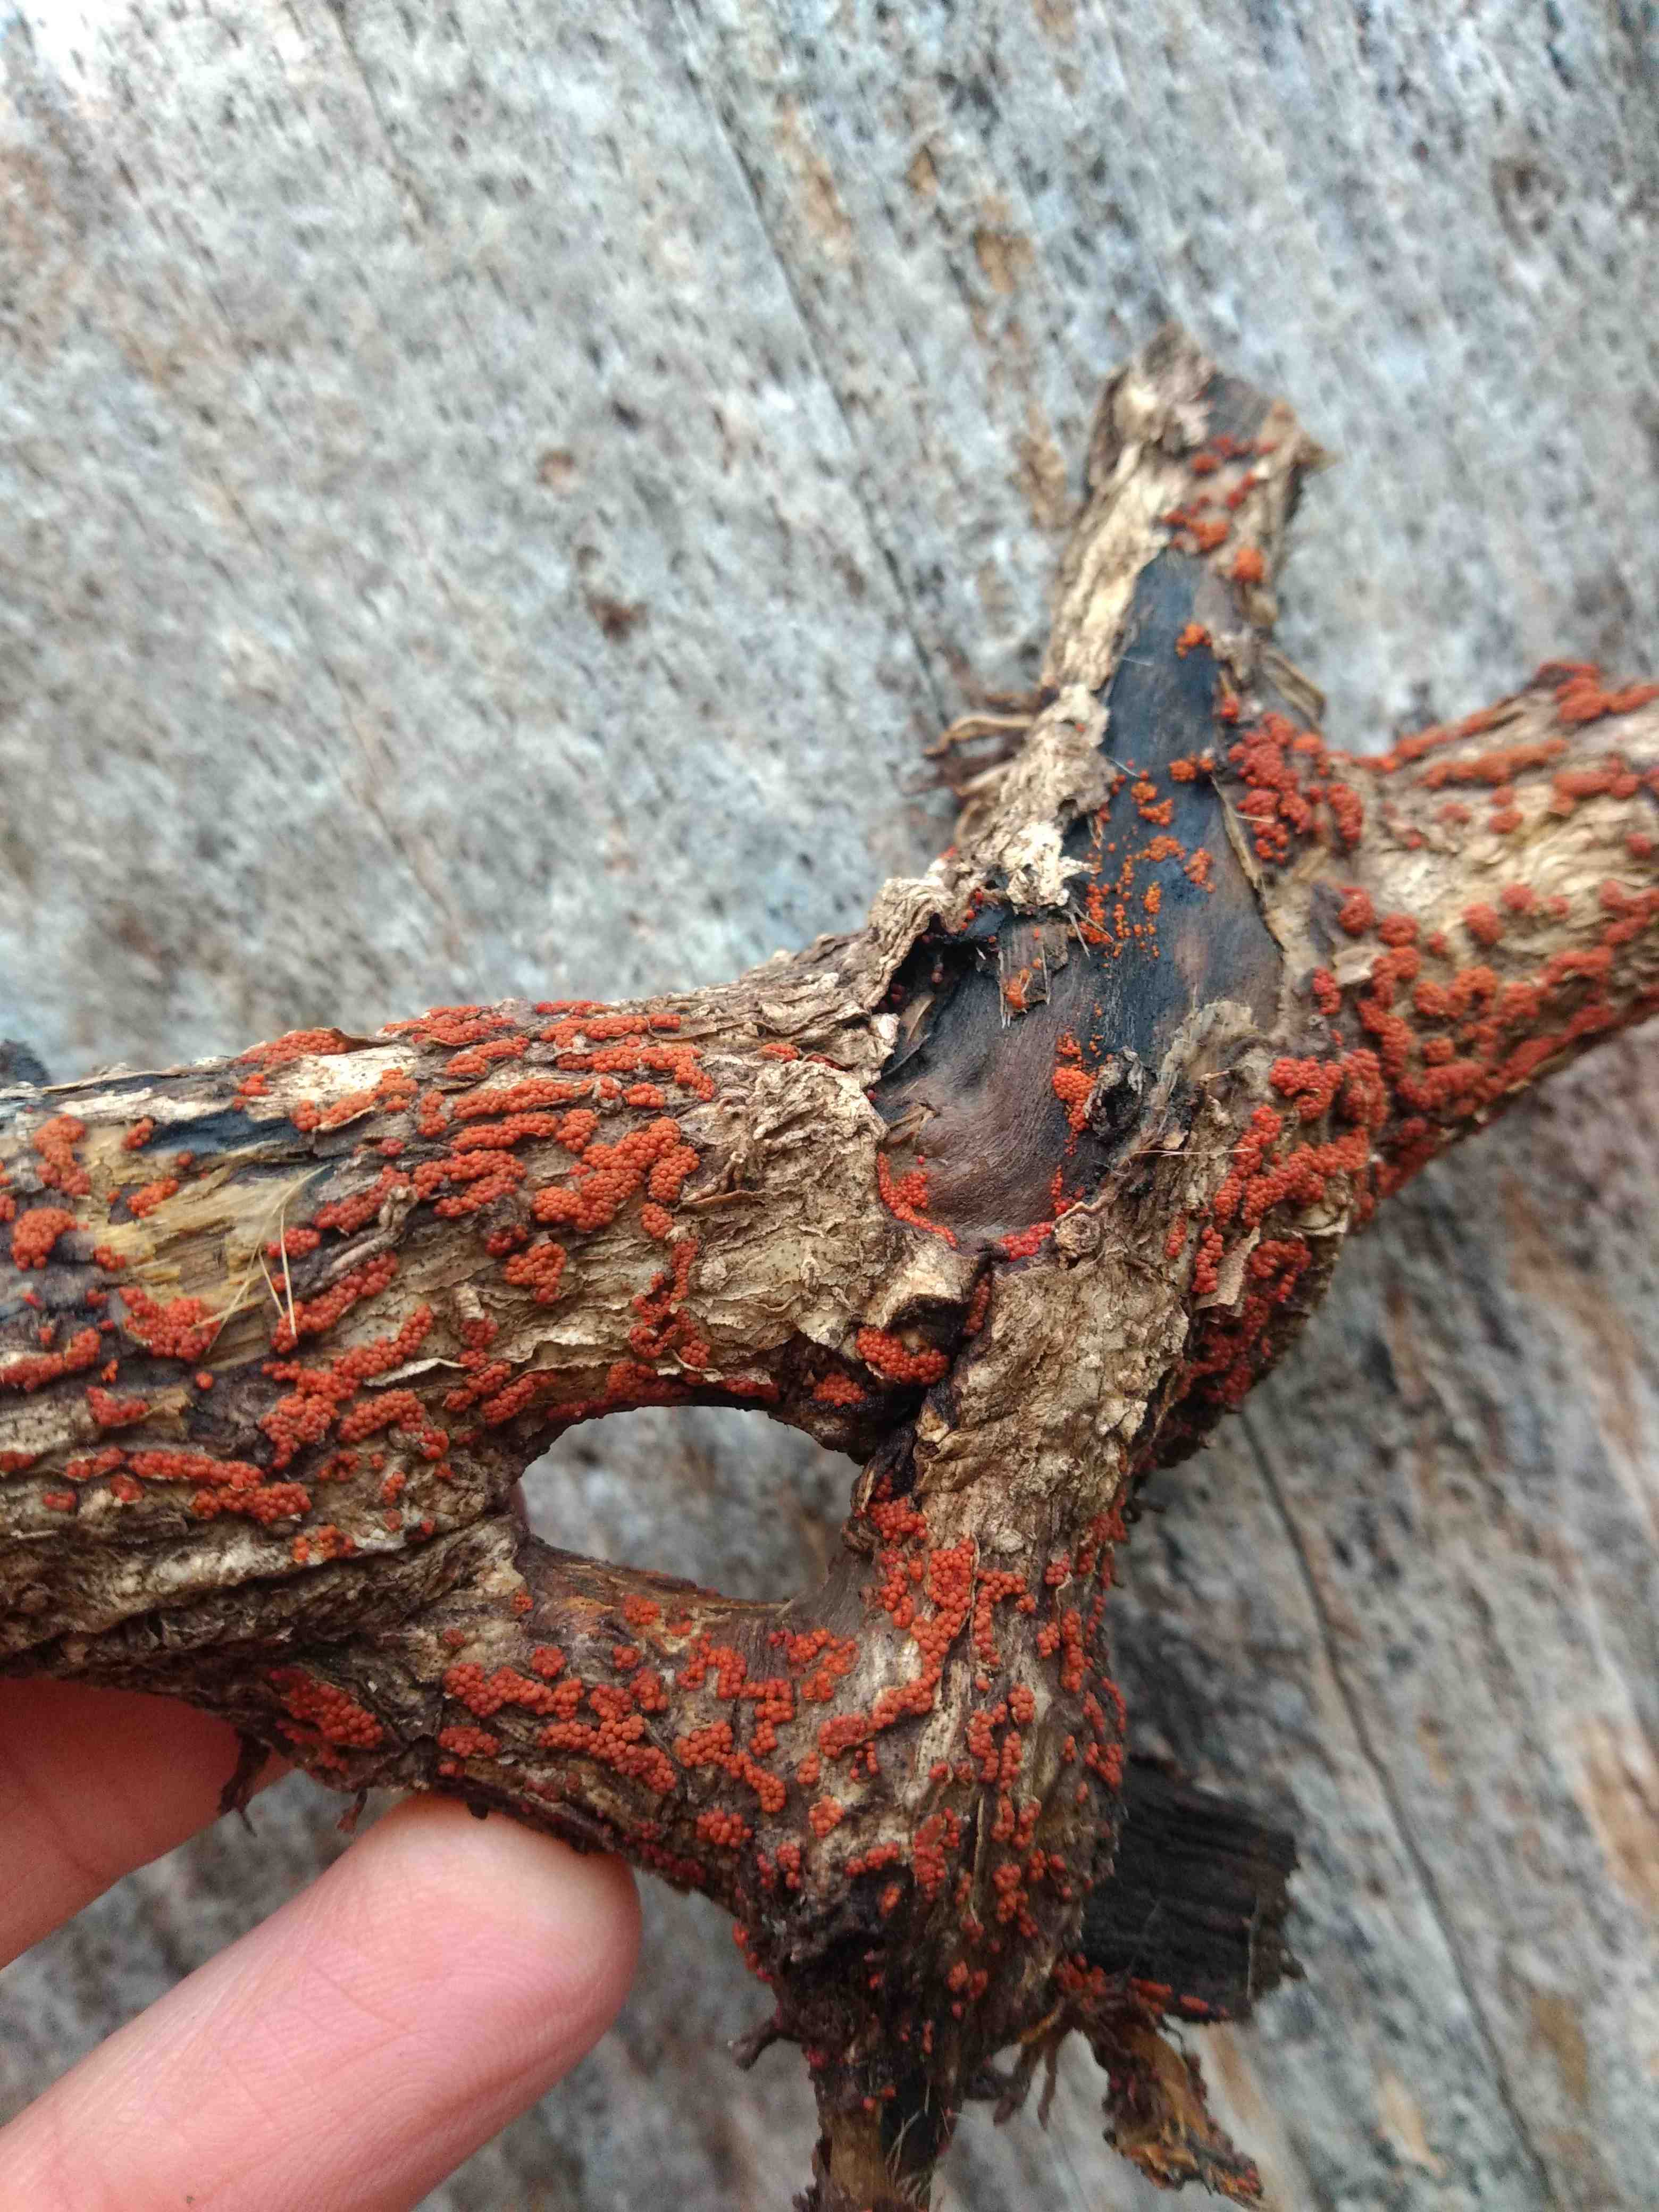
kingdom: Fungi
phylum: Ascomycota
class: Sordariomycetes
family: Thyridiaceae
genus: Thyronectria
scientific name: Thyronectria sinopica
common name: vedbend-cinnobersvamp
